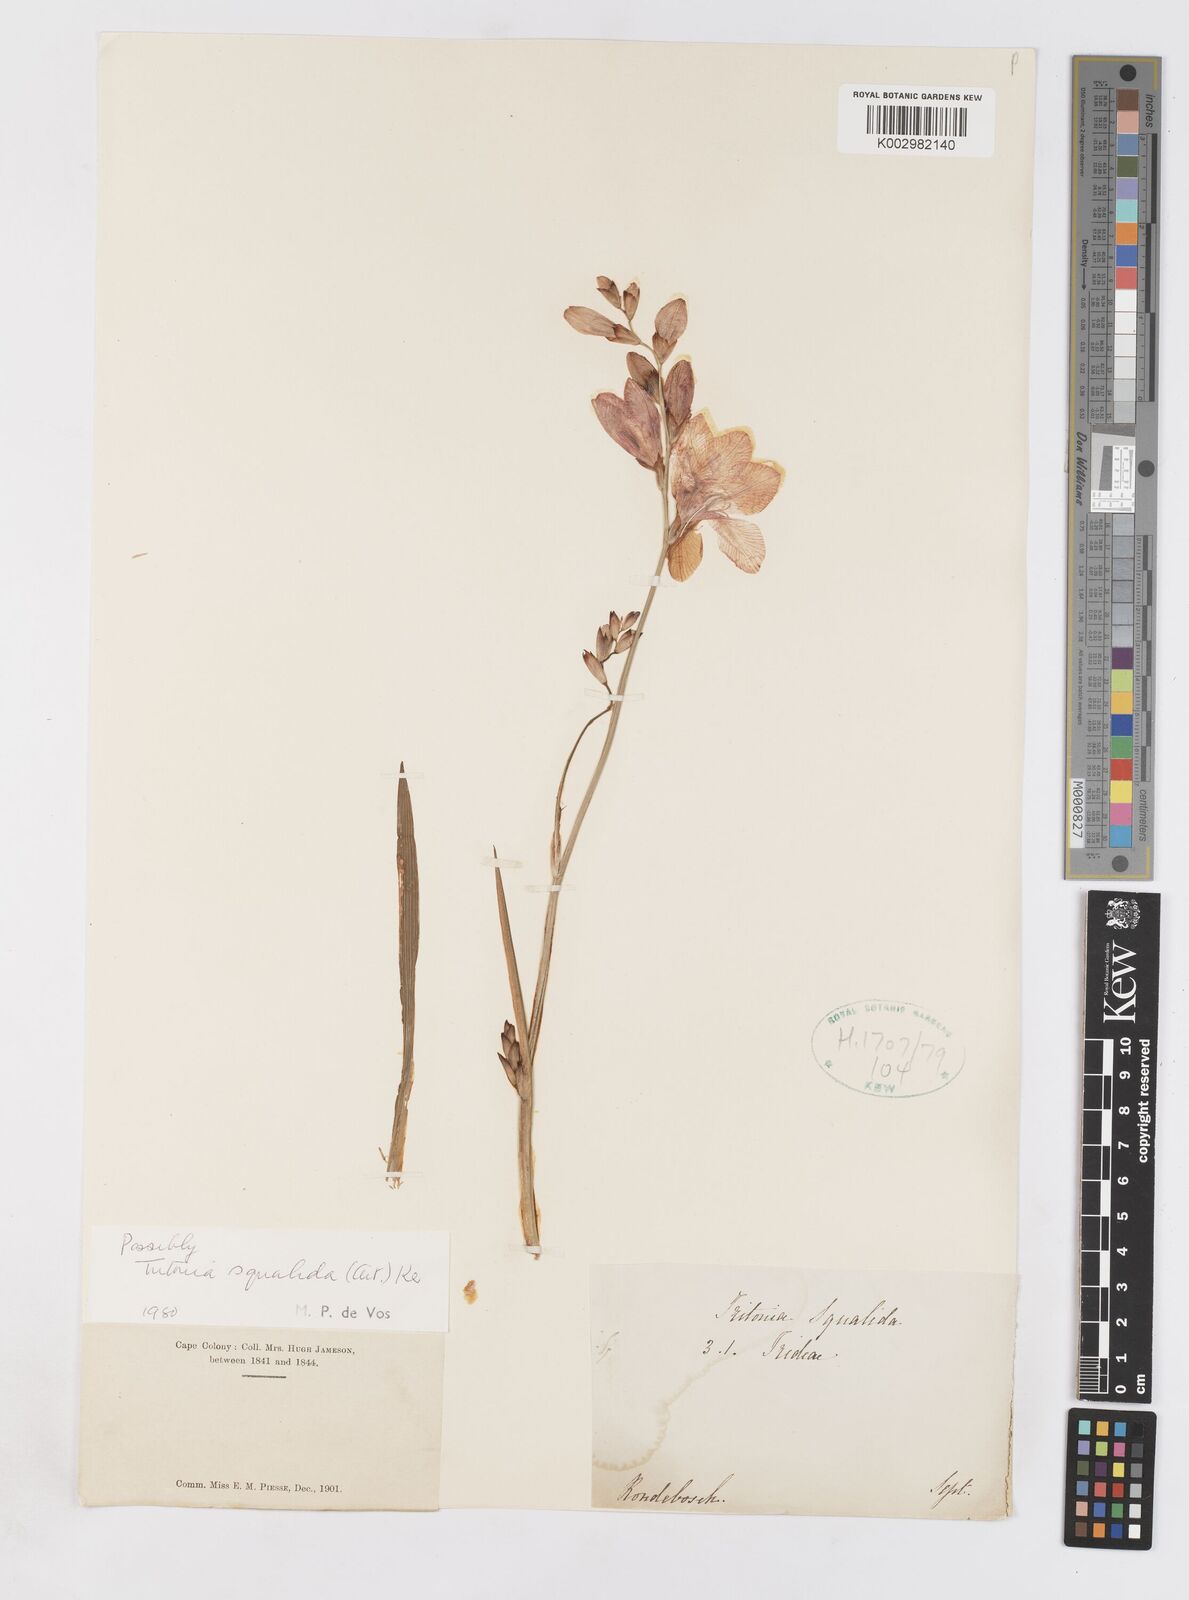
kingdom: Plantae
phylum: Tracheophyta
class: Liliopsida
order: Asparagales
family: Iridaceae
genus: Tritonia
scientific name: Tritonia squalida
